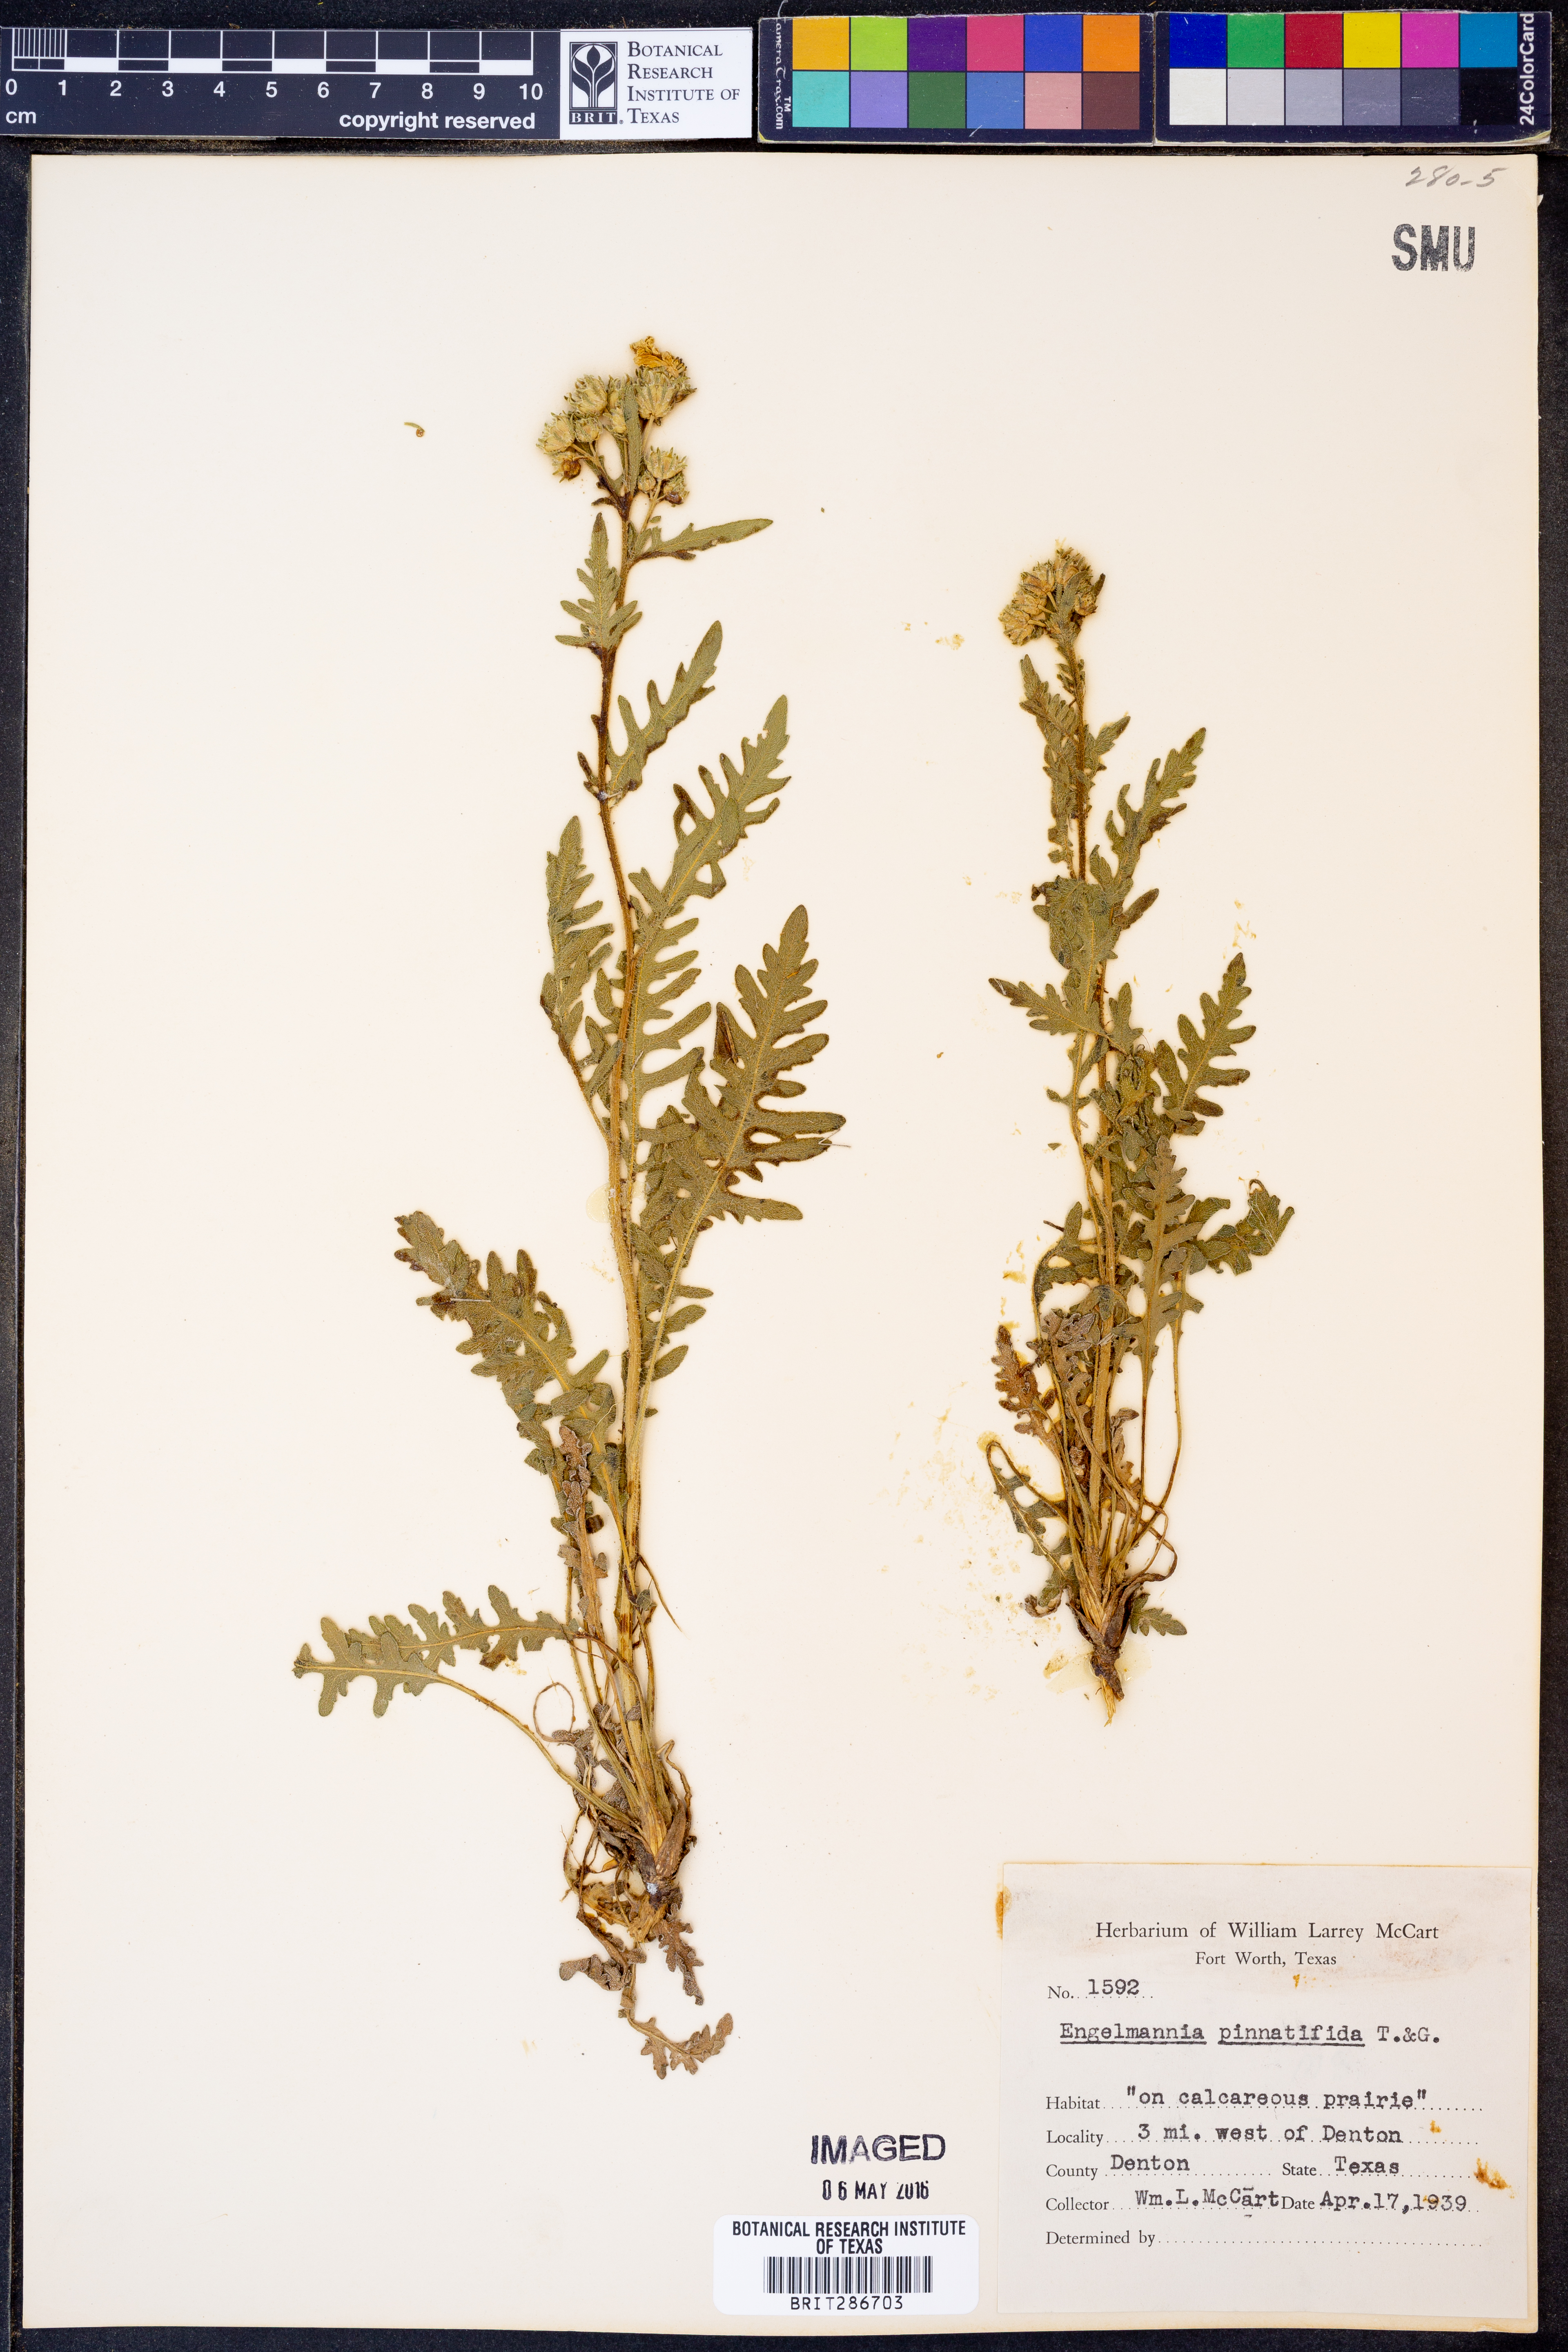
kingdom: Plantae
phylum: Tracheophyta
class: Magnoliopsida
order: Asterales
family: Asteraceae
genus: Engelmannia
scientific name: Engelmannia peristenia
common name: Engelmann's daisy
